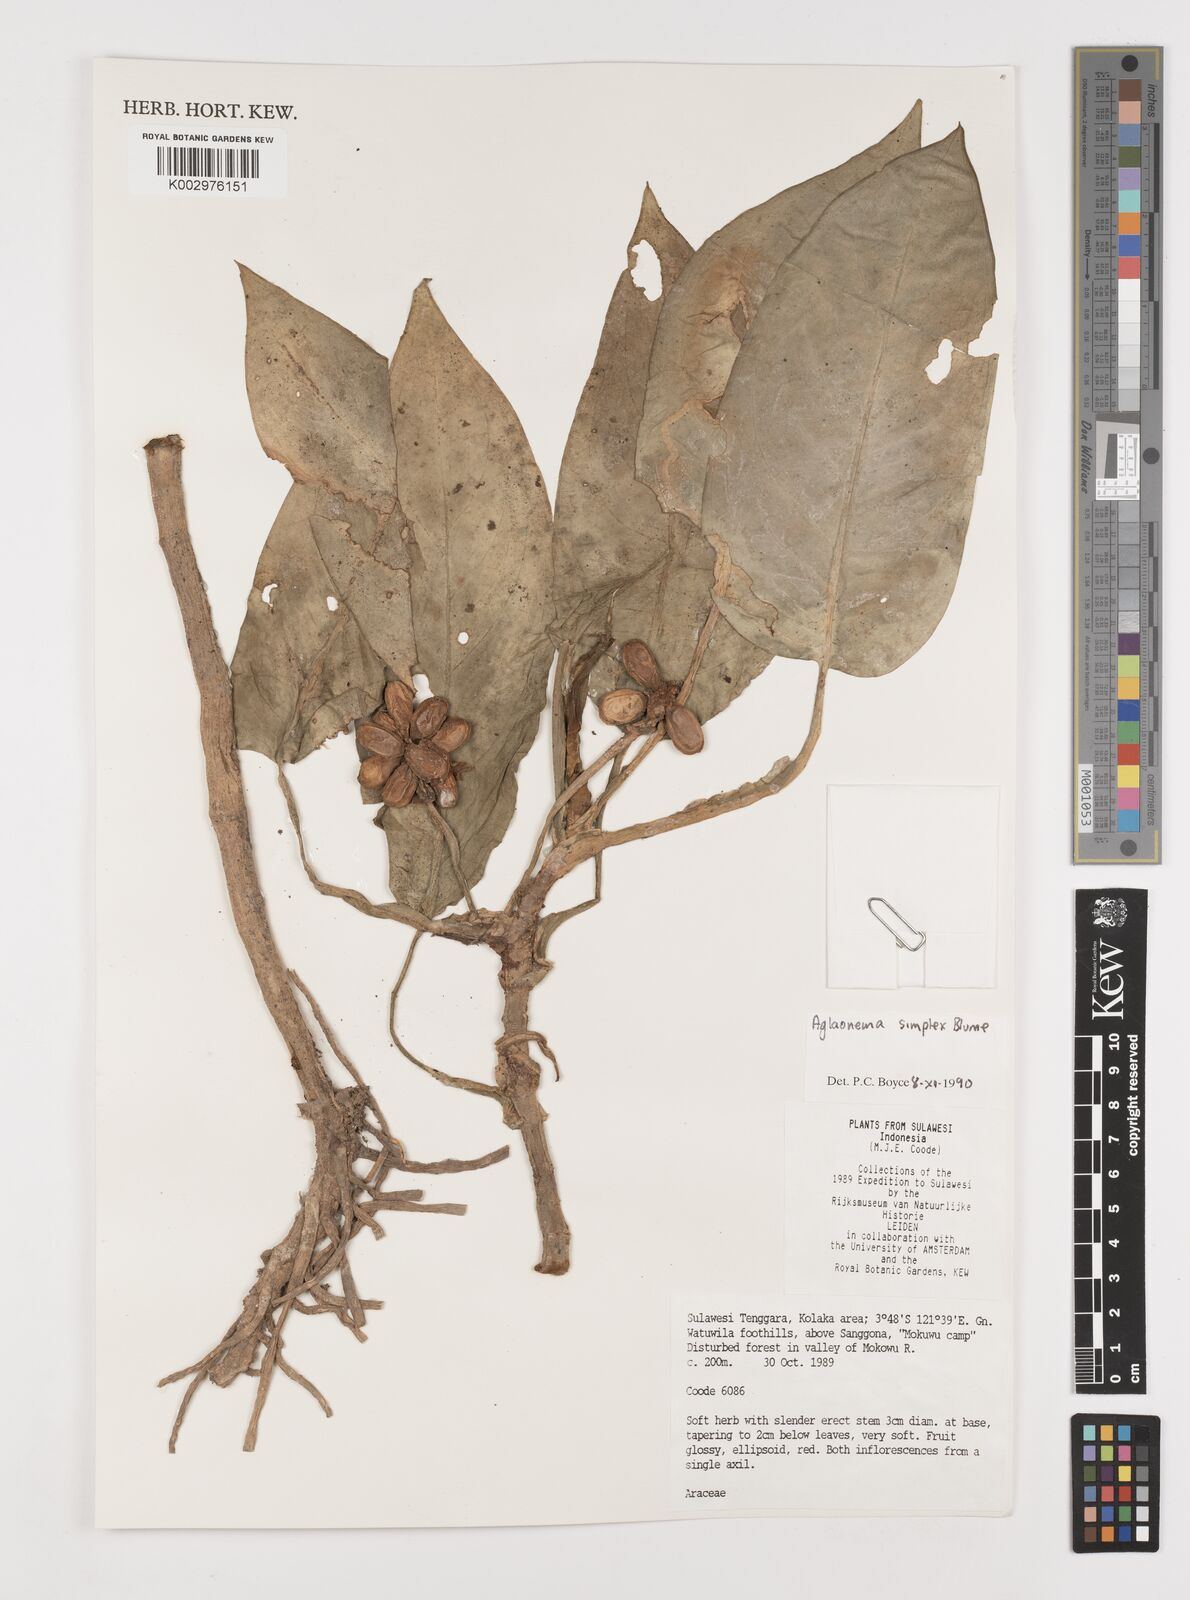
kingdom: Plantae
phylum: Tracheophyta
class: Liliopsida
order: Alismatales
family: Araceae
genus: Aglaonema
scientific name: Aglaonema simplex
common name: Malayan-sword
